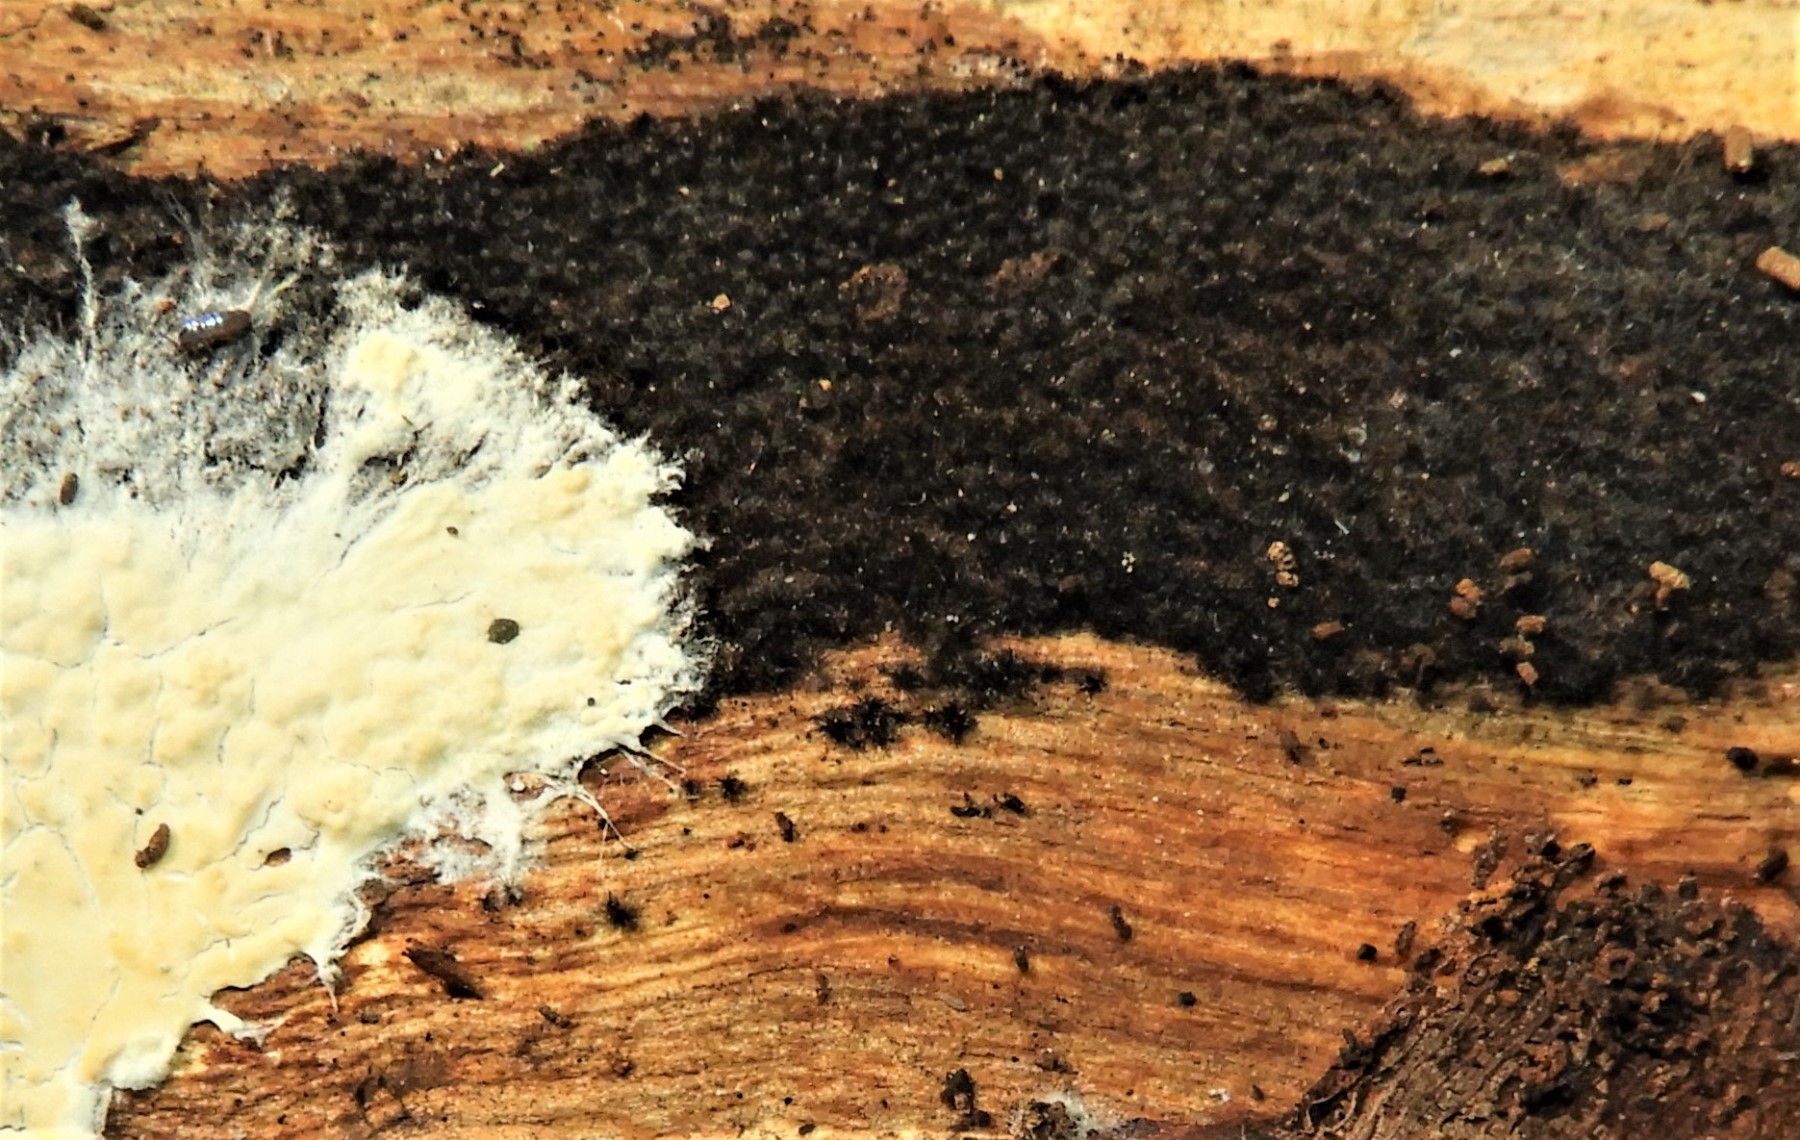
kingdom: Fungi
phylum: Ascomycota
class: Sordariomycetes
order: Sordariales
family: Helminthosphaeriaceae
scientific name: Helminthosphaeriaceae
